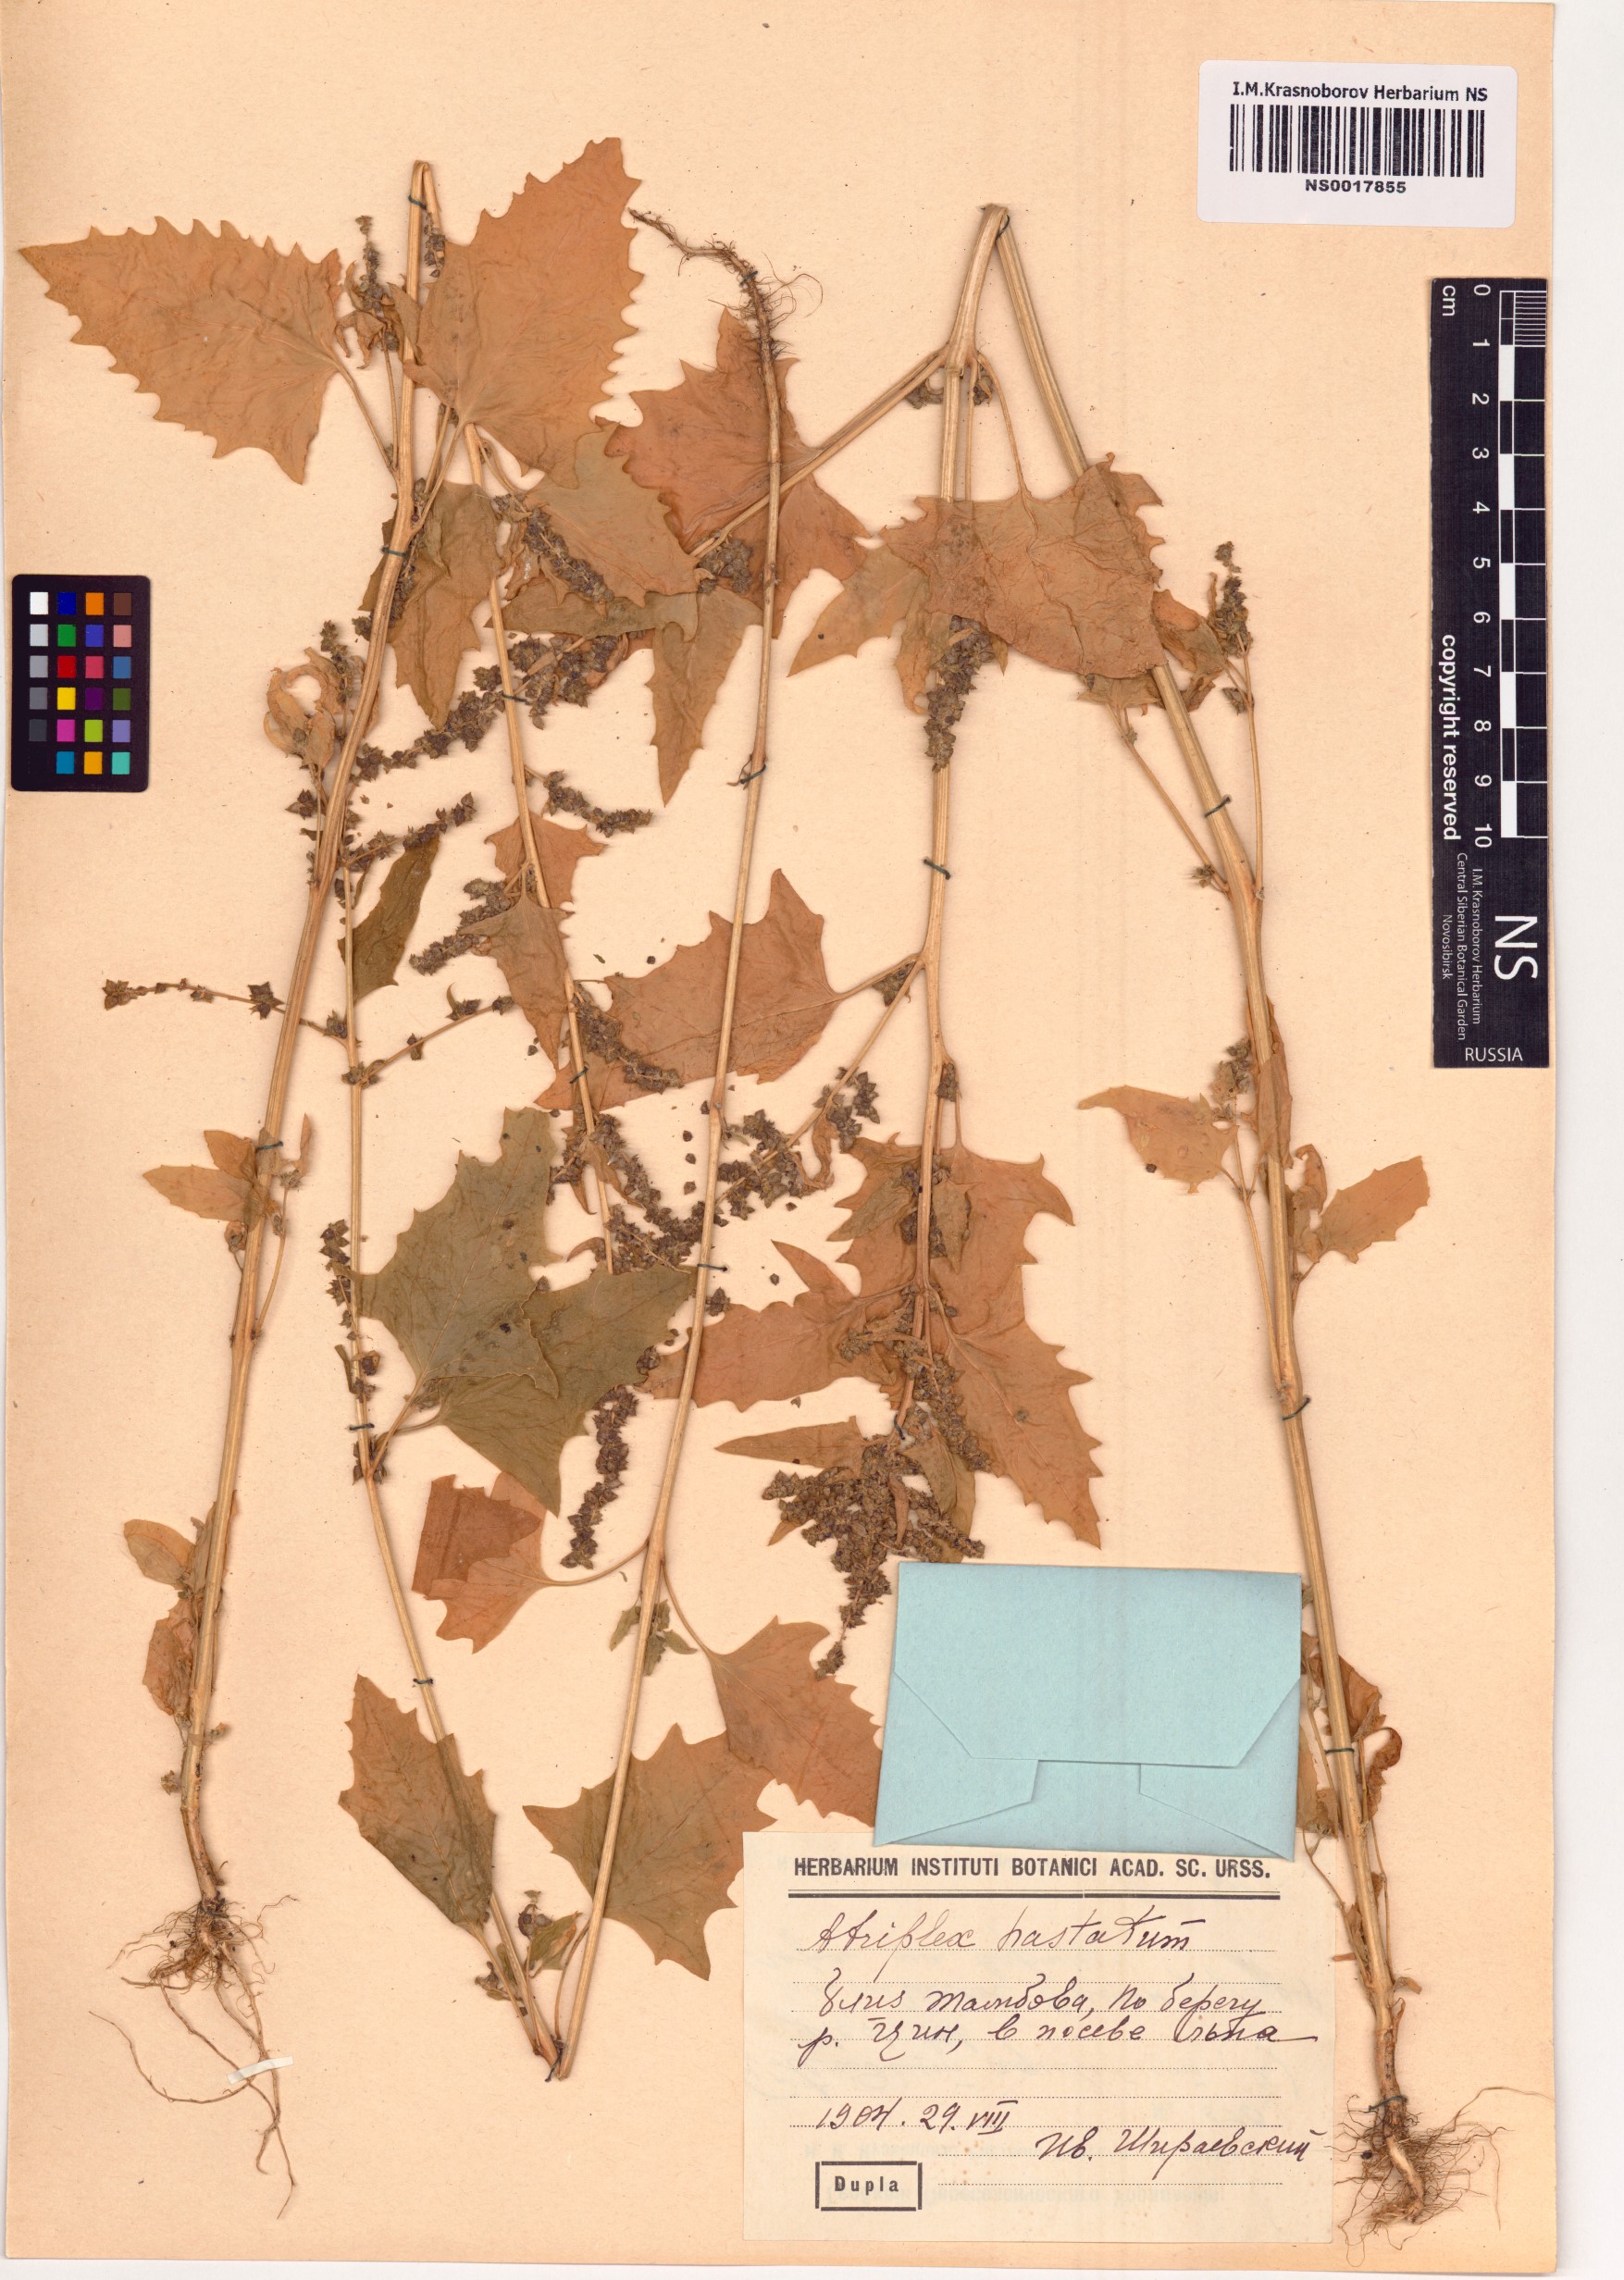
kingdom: Plantae
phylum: Tracheophyta
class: Magnoliopsida
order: Caryophyllales
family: Amaranthaceae
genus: Atriplex
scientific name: Atriplex calotheca
